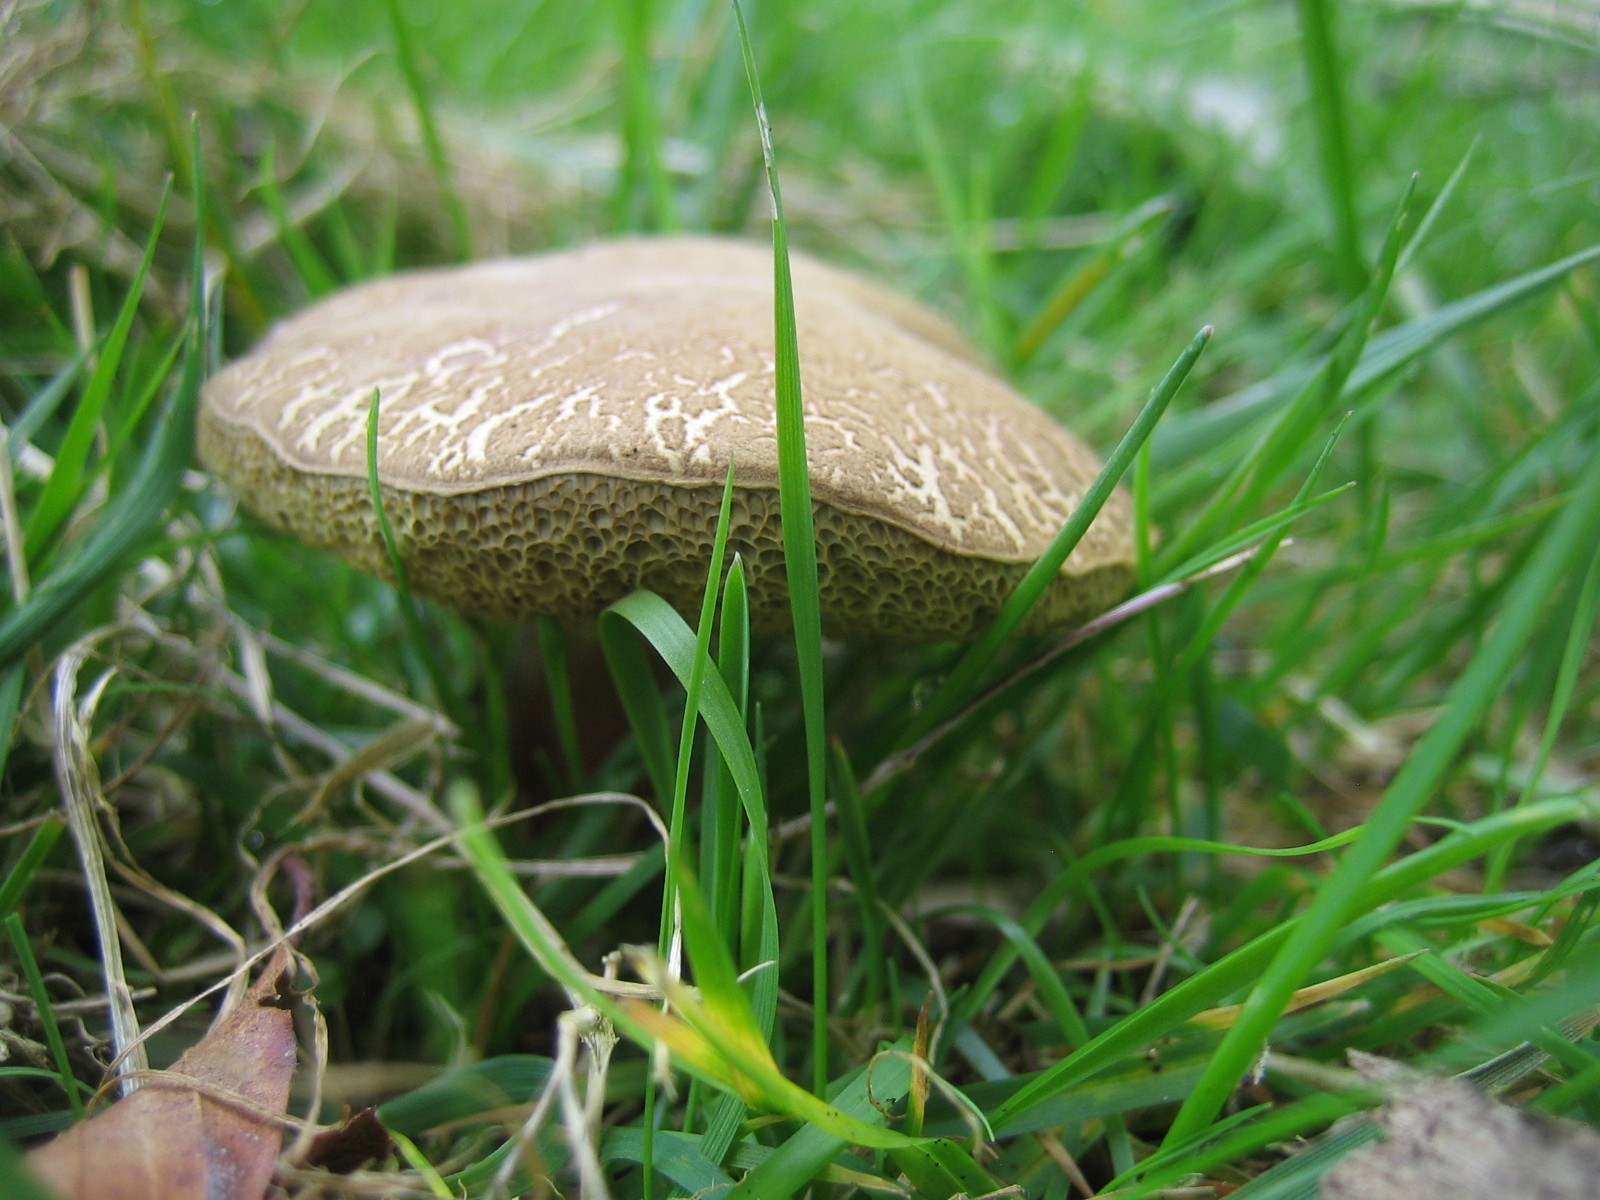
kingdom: Fungi
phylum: Basidiomycota
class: Agaricomycetes
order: Boletales
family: Boletaceae
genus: Xerocomellus
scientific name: Xerocomellus
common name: dværgrørhat
